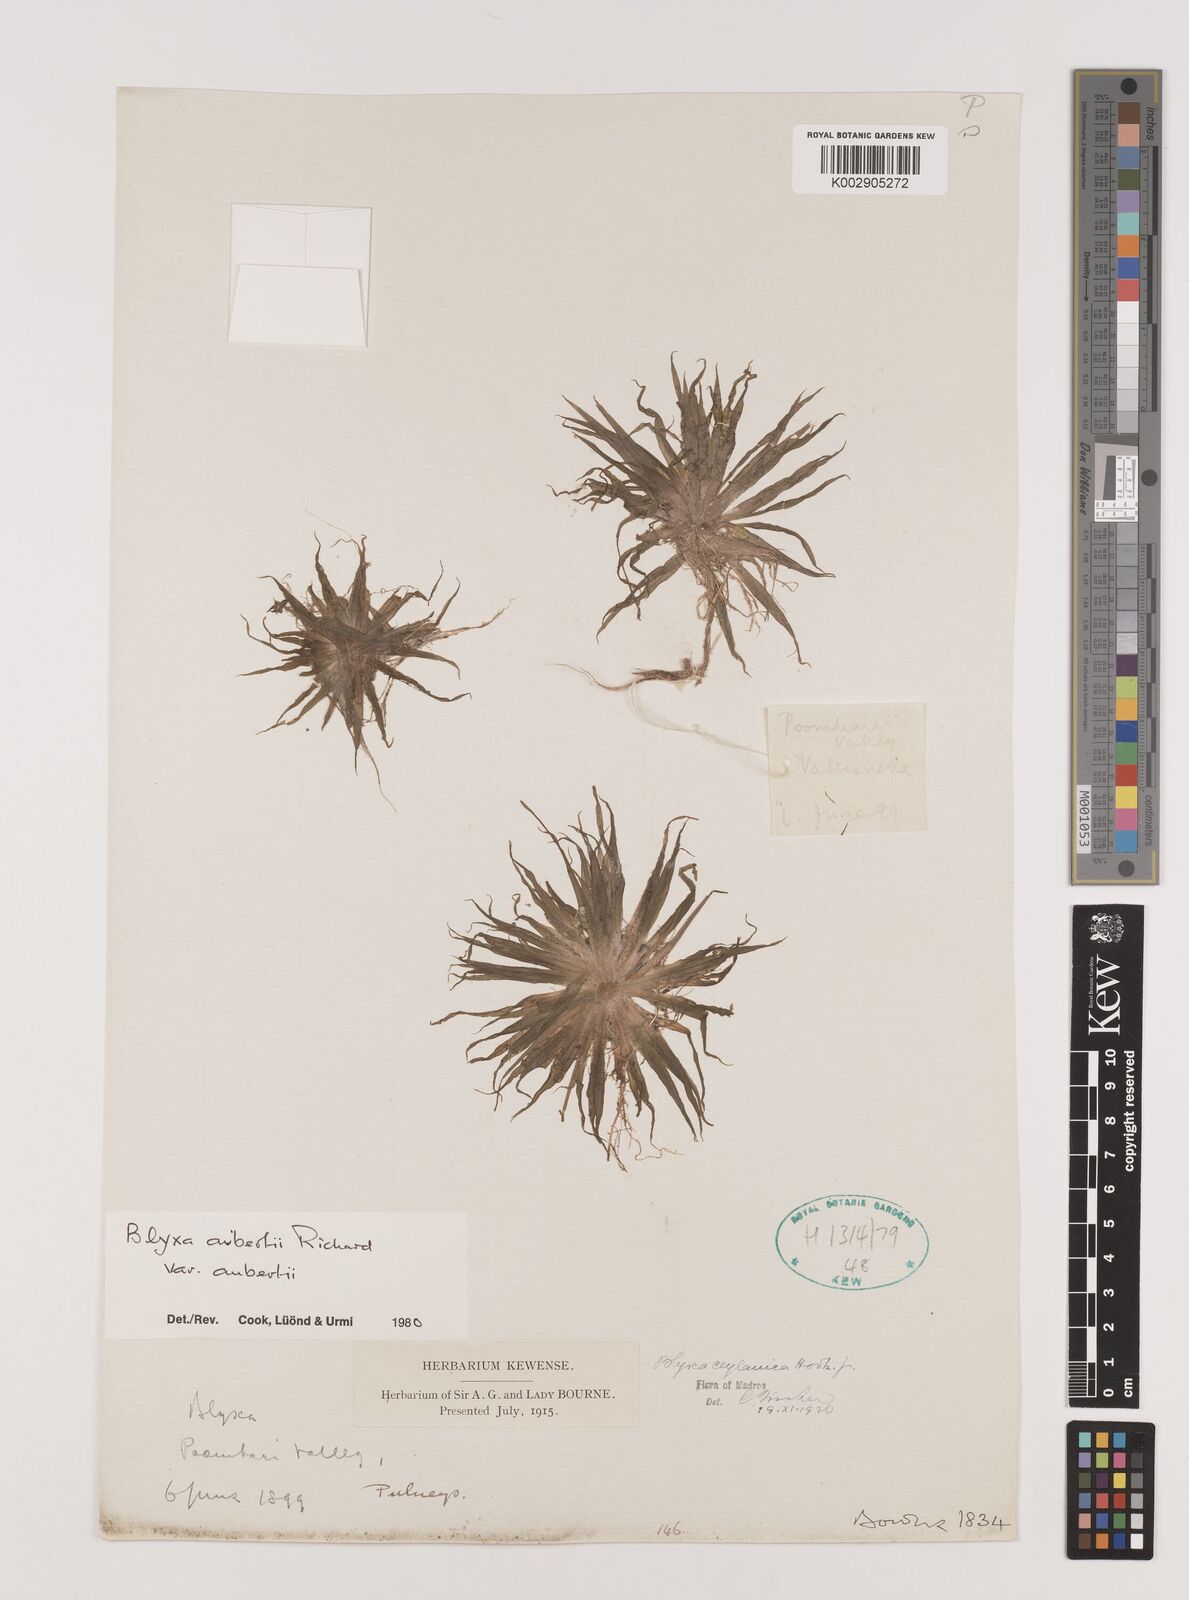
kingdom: Plantae
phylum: Tracheophyta
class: Liliopsida
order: Alismatales
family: Hydrocharitaceae
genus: Blyxa
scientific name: Blyxa aubertii
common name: Roundfruit blyxa
